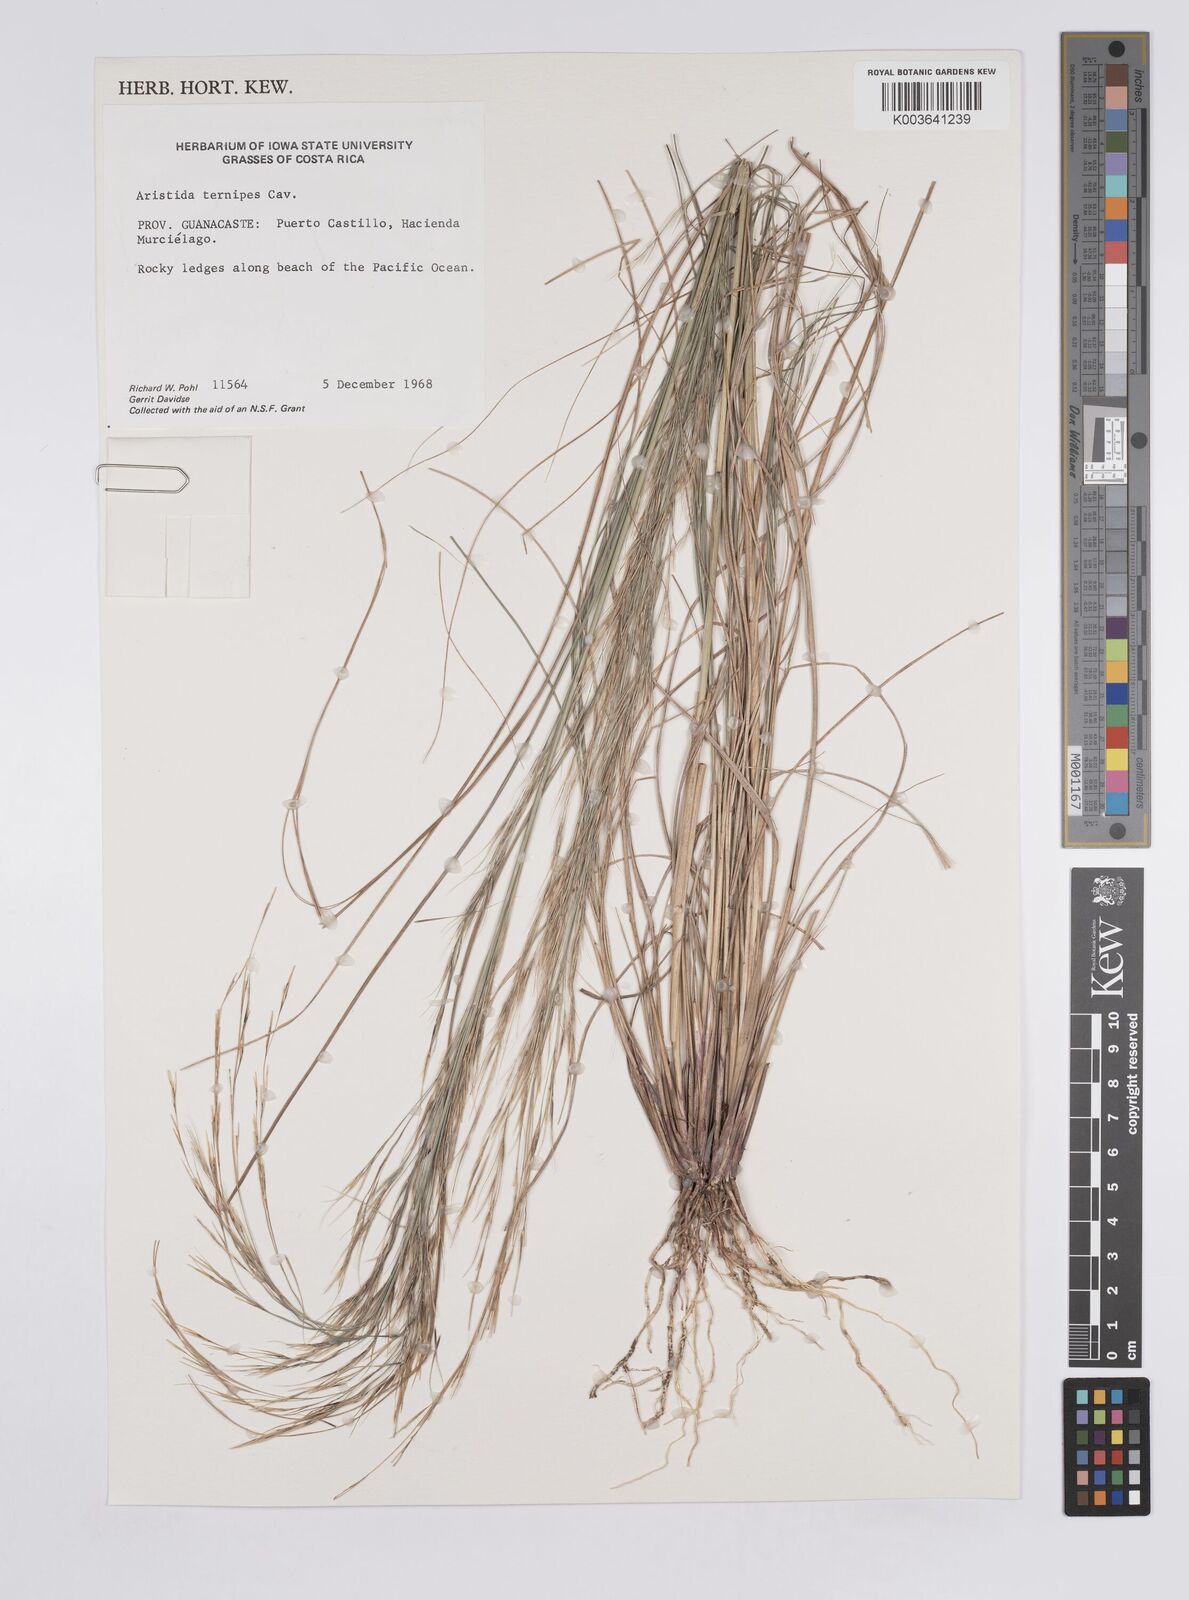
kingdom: Plantae
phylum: Tracheophyta
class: Liliopsida
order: Poales
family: Poaceae
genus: Aristida
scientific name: Aristida
